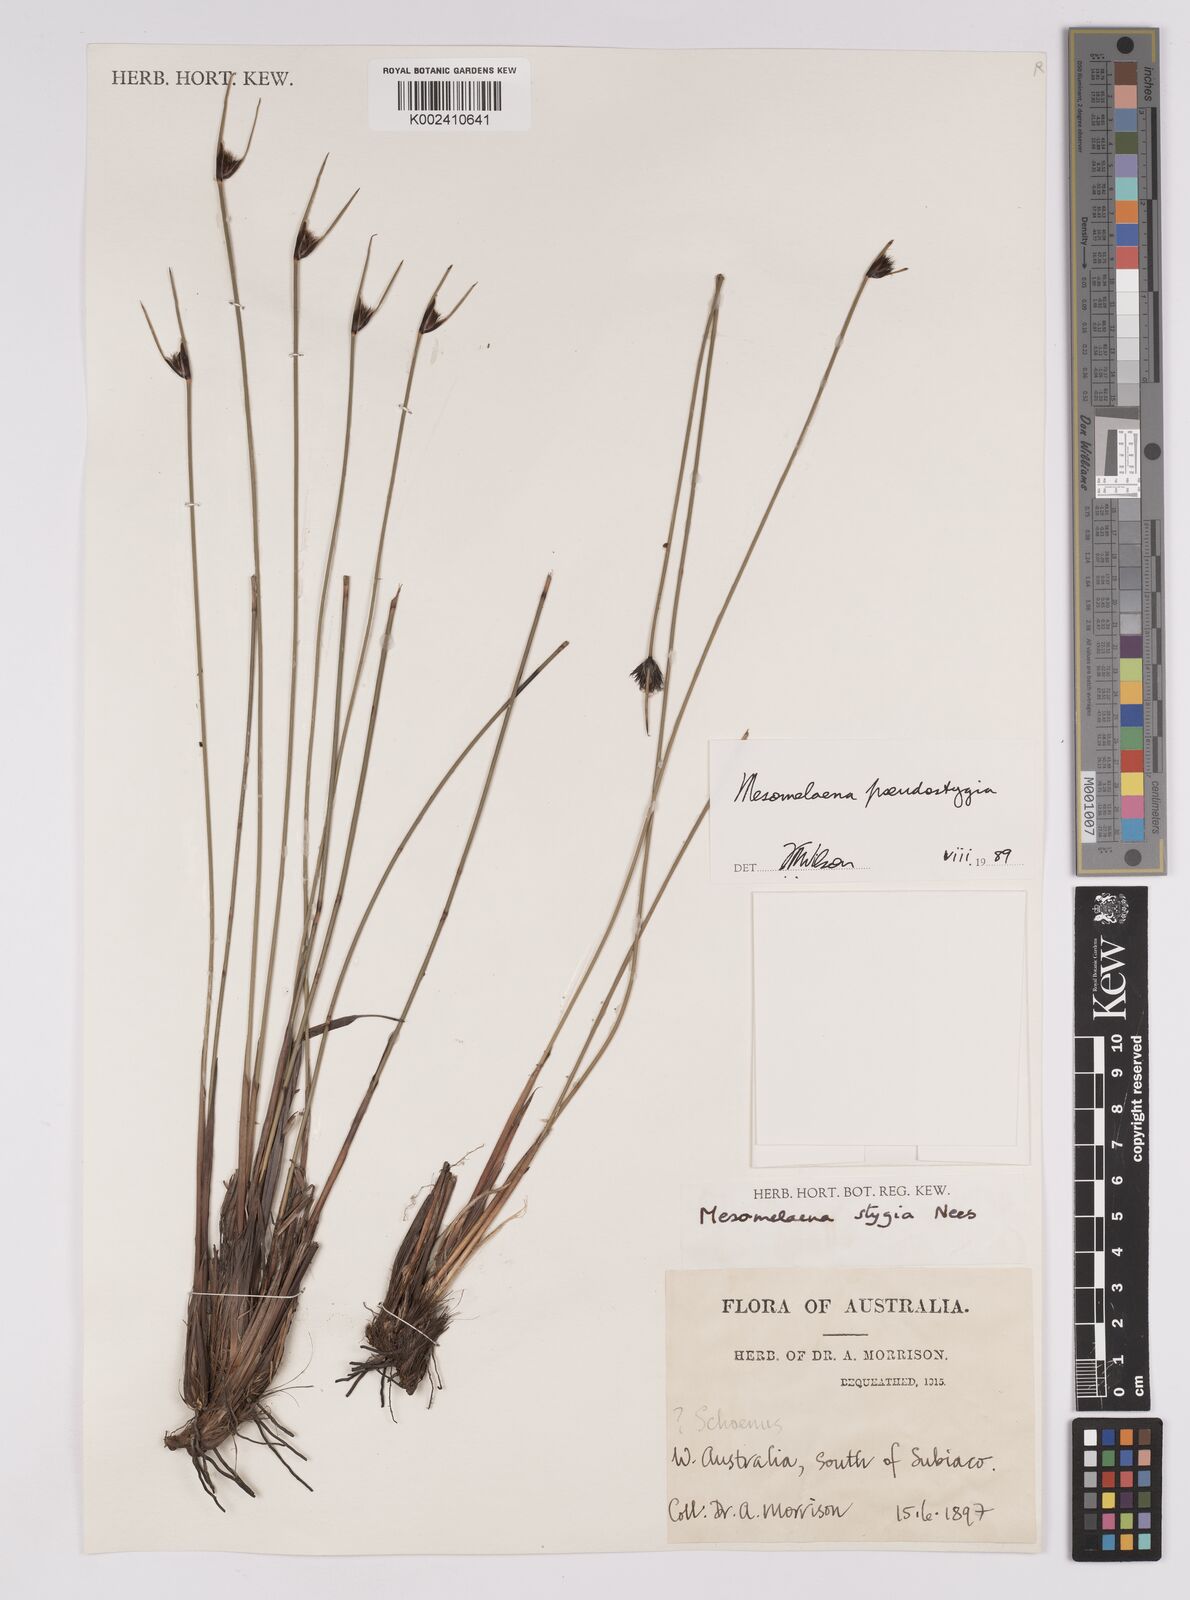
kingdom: Plantae
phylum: Tracheophyta
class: Liliopsida
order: Poales
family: Cyperaceae
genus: Mesomelaena
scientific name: Mesomelaena pseudostygia
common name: Semaphore sedge
